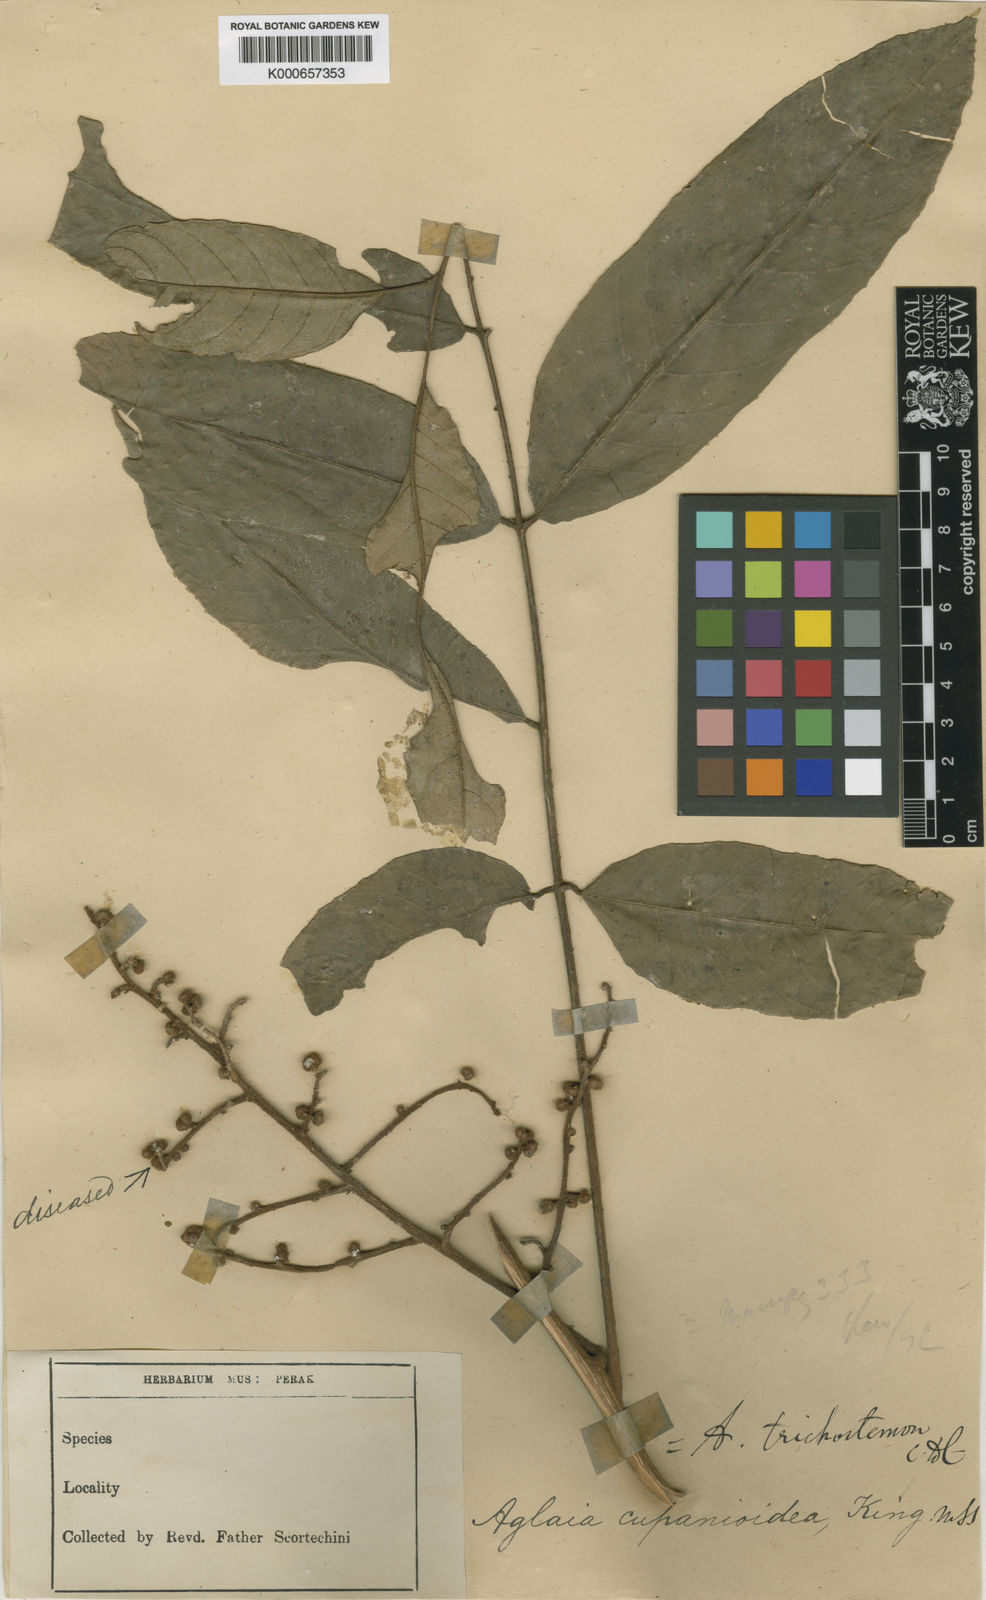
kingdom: Plantae
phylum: Tracheophyta
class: Magnoliopsida
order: Sapindales
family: Meliaceae
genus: Aglaia
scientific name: Aglaia rufinervis
